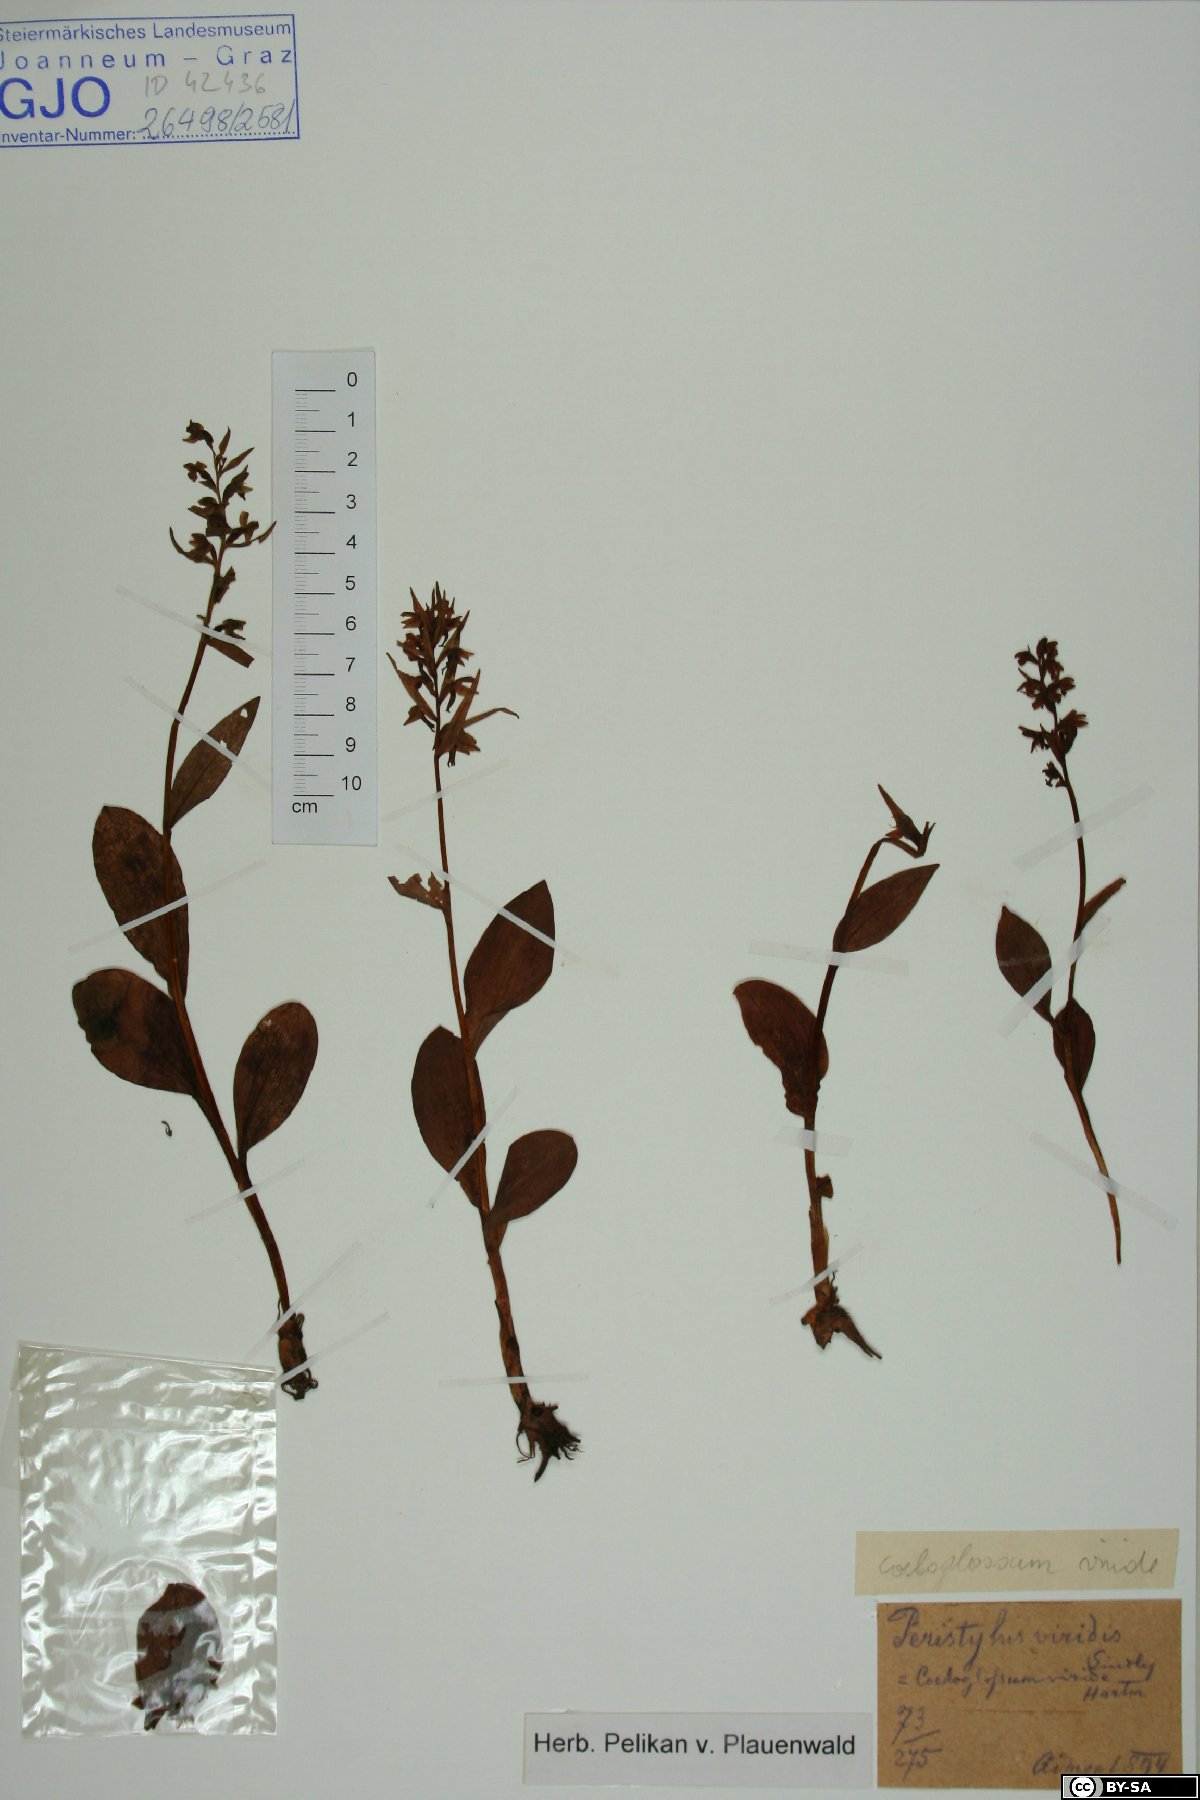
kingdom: Plantae
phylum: Tracheophyta
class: Liliopsida
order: Asparagales
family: Orchidaceae
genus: Dactylorhiza
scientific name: Dactylorhiza viridis
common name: Longbract frog orchid
